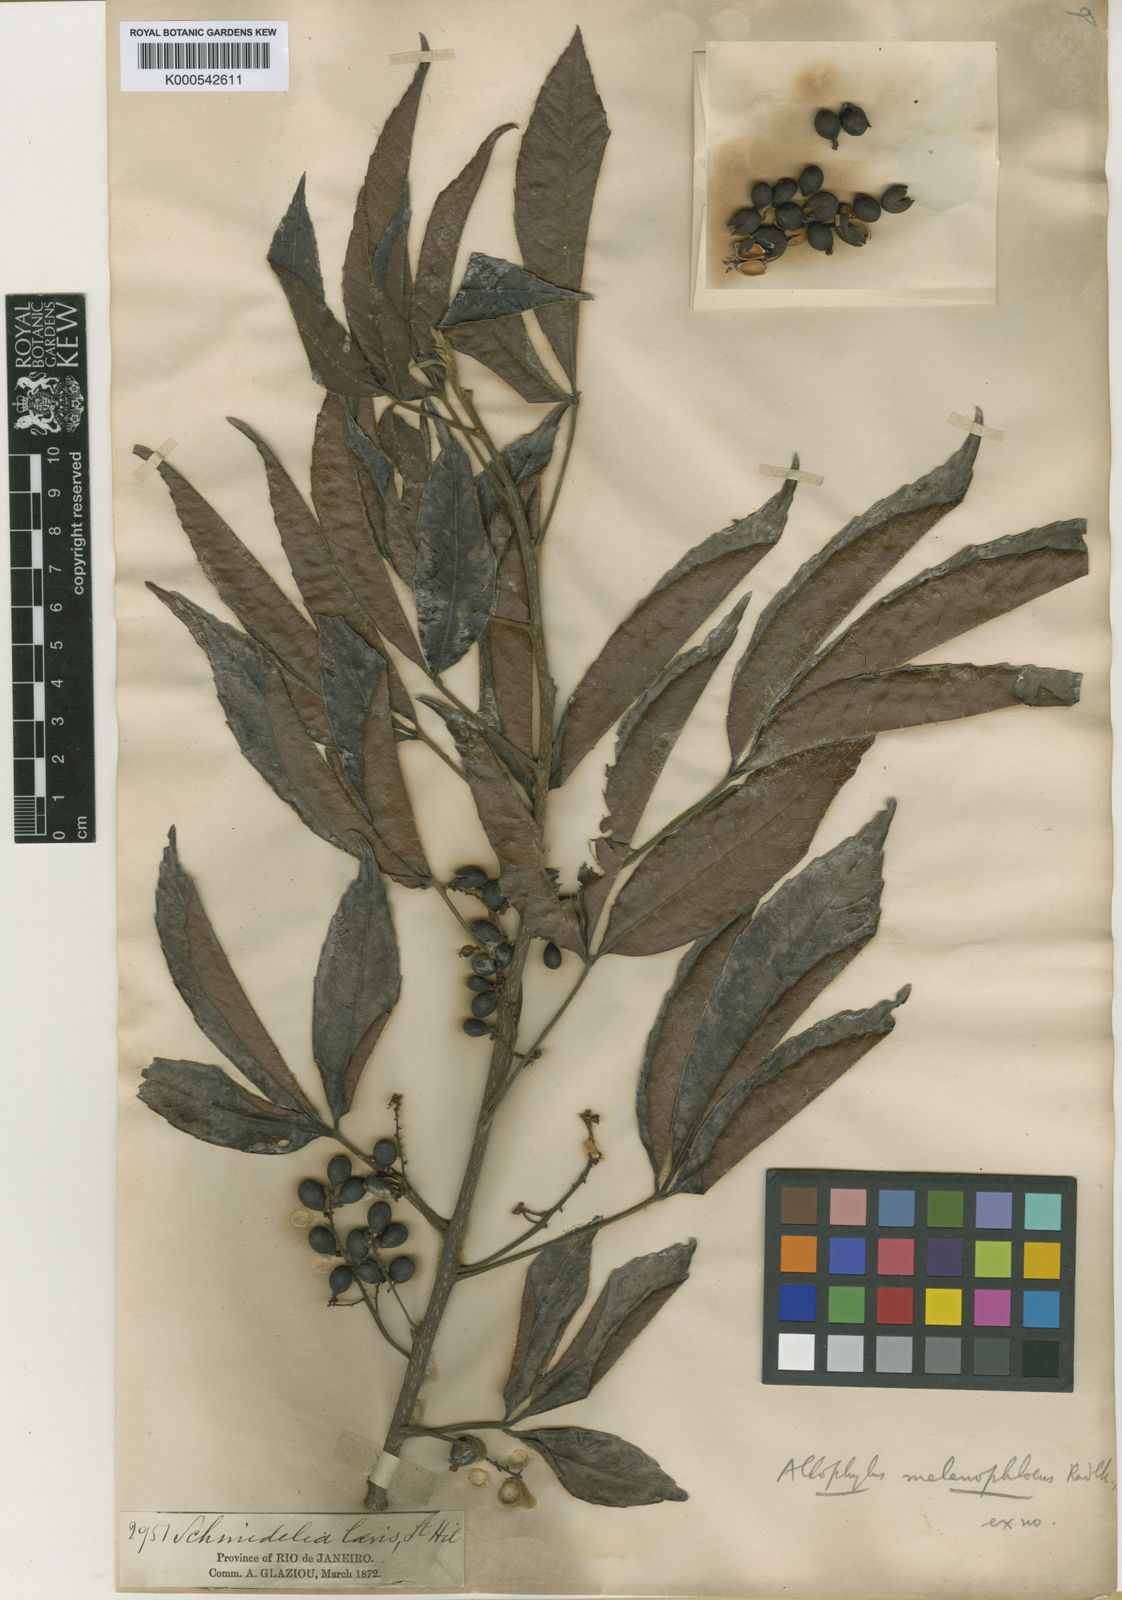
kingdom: Plantae
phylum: Tracheophyta
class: Magnoliopsida
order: Sapindales
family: Sapindaceae
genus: Allophylus
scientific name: Allophylus melanophloeus
